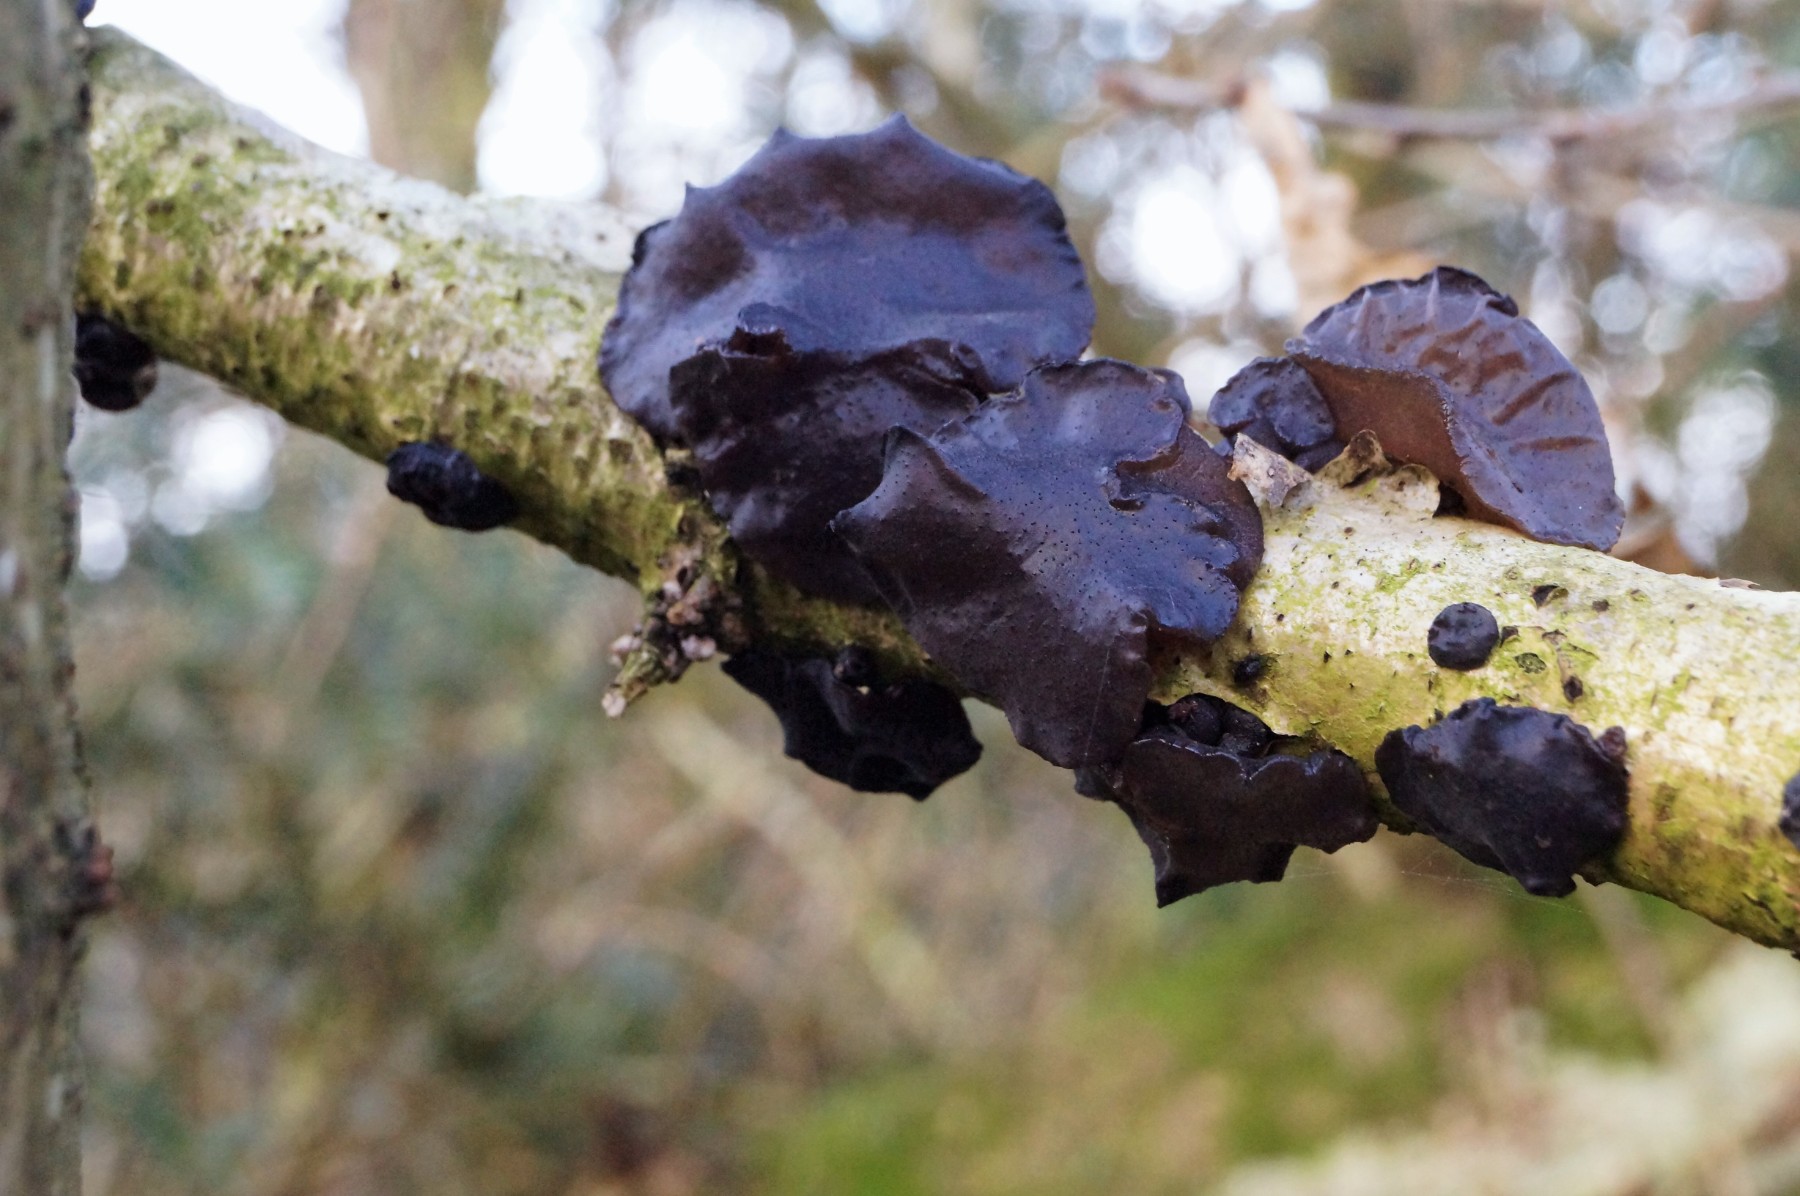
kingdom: Fungi
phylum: Basidiomycota
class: Agaricomycetes
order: Auriculariales
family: Auriculariaceae
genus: Exidia
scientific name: Exidia glandulosa
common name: ege-bævretop
